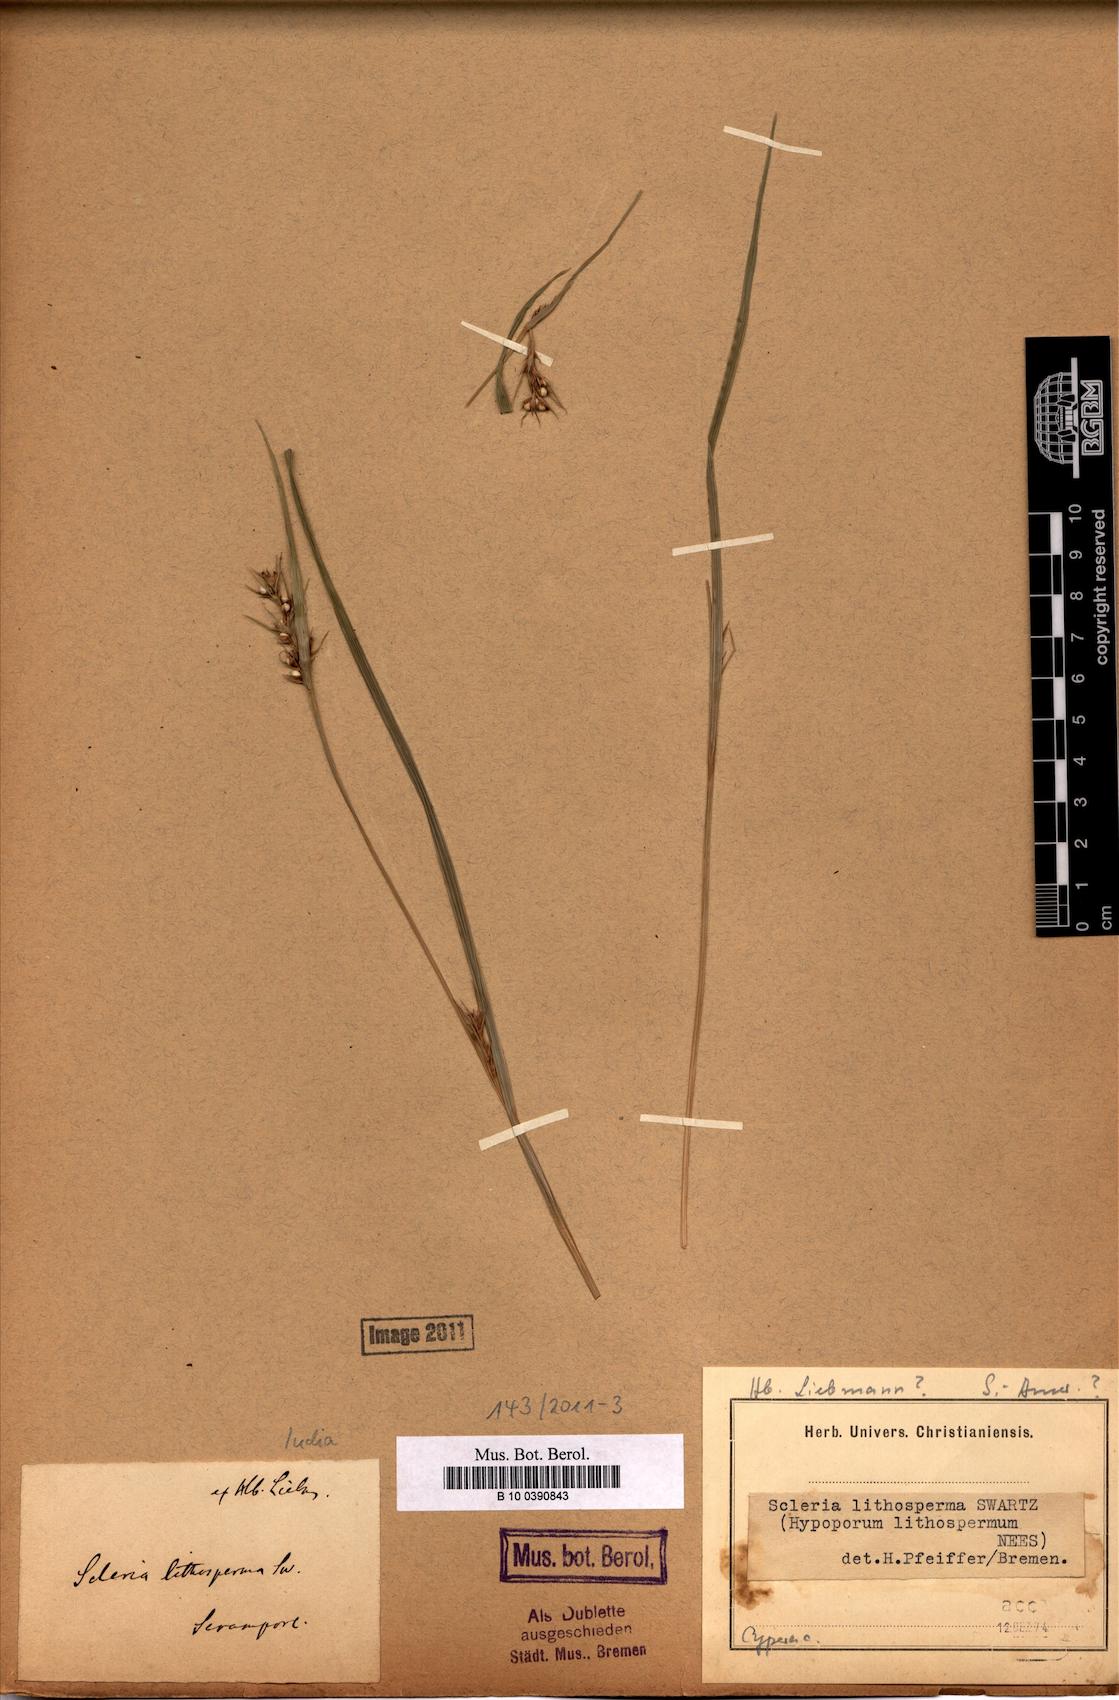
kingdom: Plantae
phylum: Tracheophyta
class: Liliopsida
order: Poales
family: Cyperaceae
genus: Scleria
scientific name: Scleria lithosperma
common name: Florida keys nut-rush
